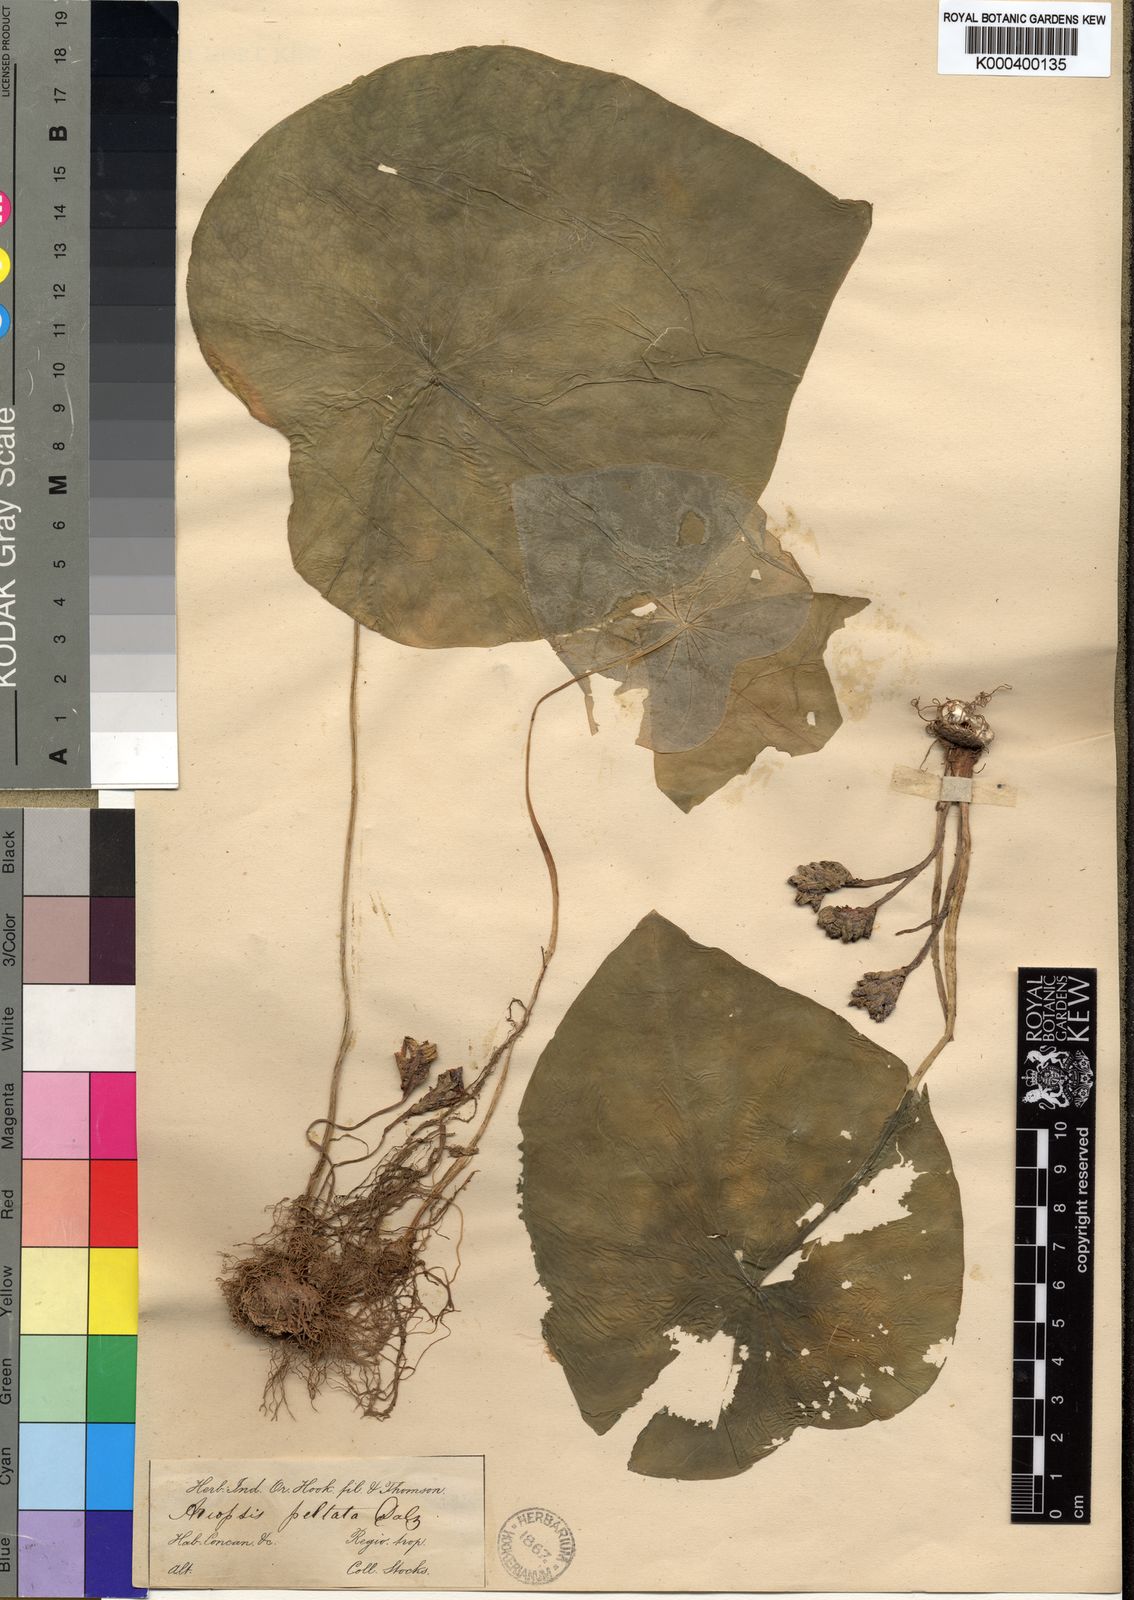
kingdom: Plantae
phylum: Tracheophyta
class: Liliopsida
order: Alismatales
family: Araceae
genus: Ariopsis
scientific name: Ariopsis peltata
